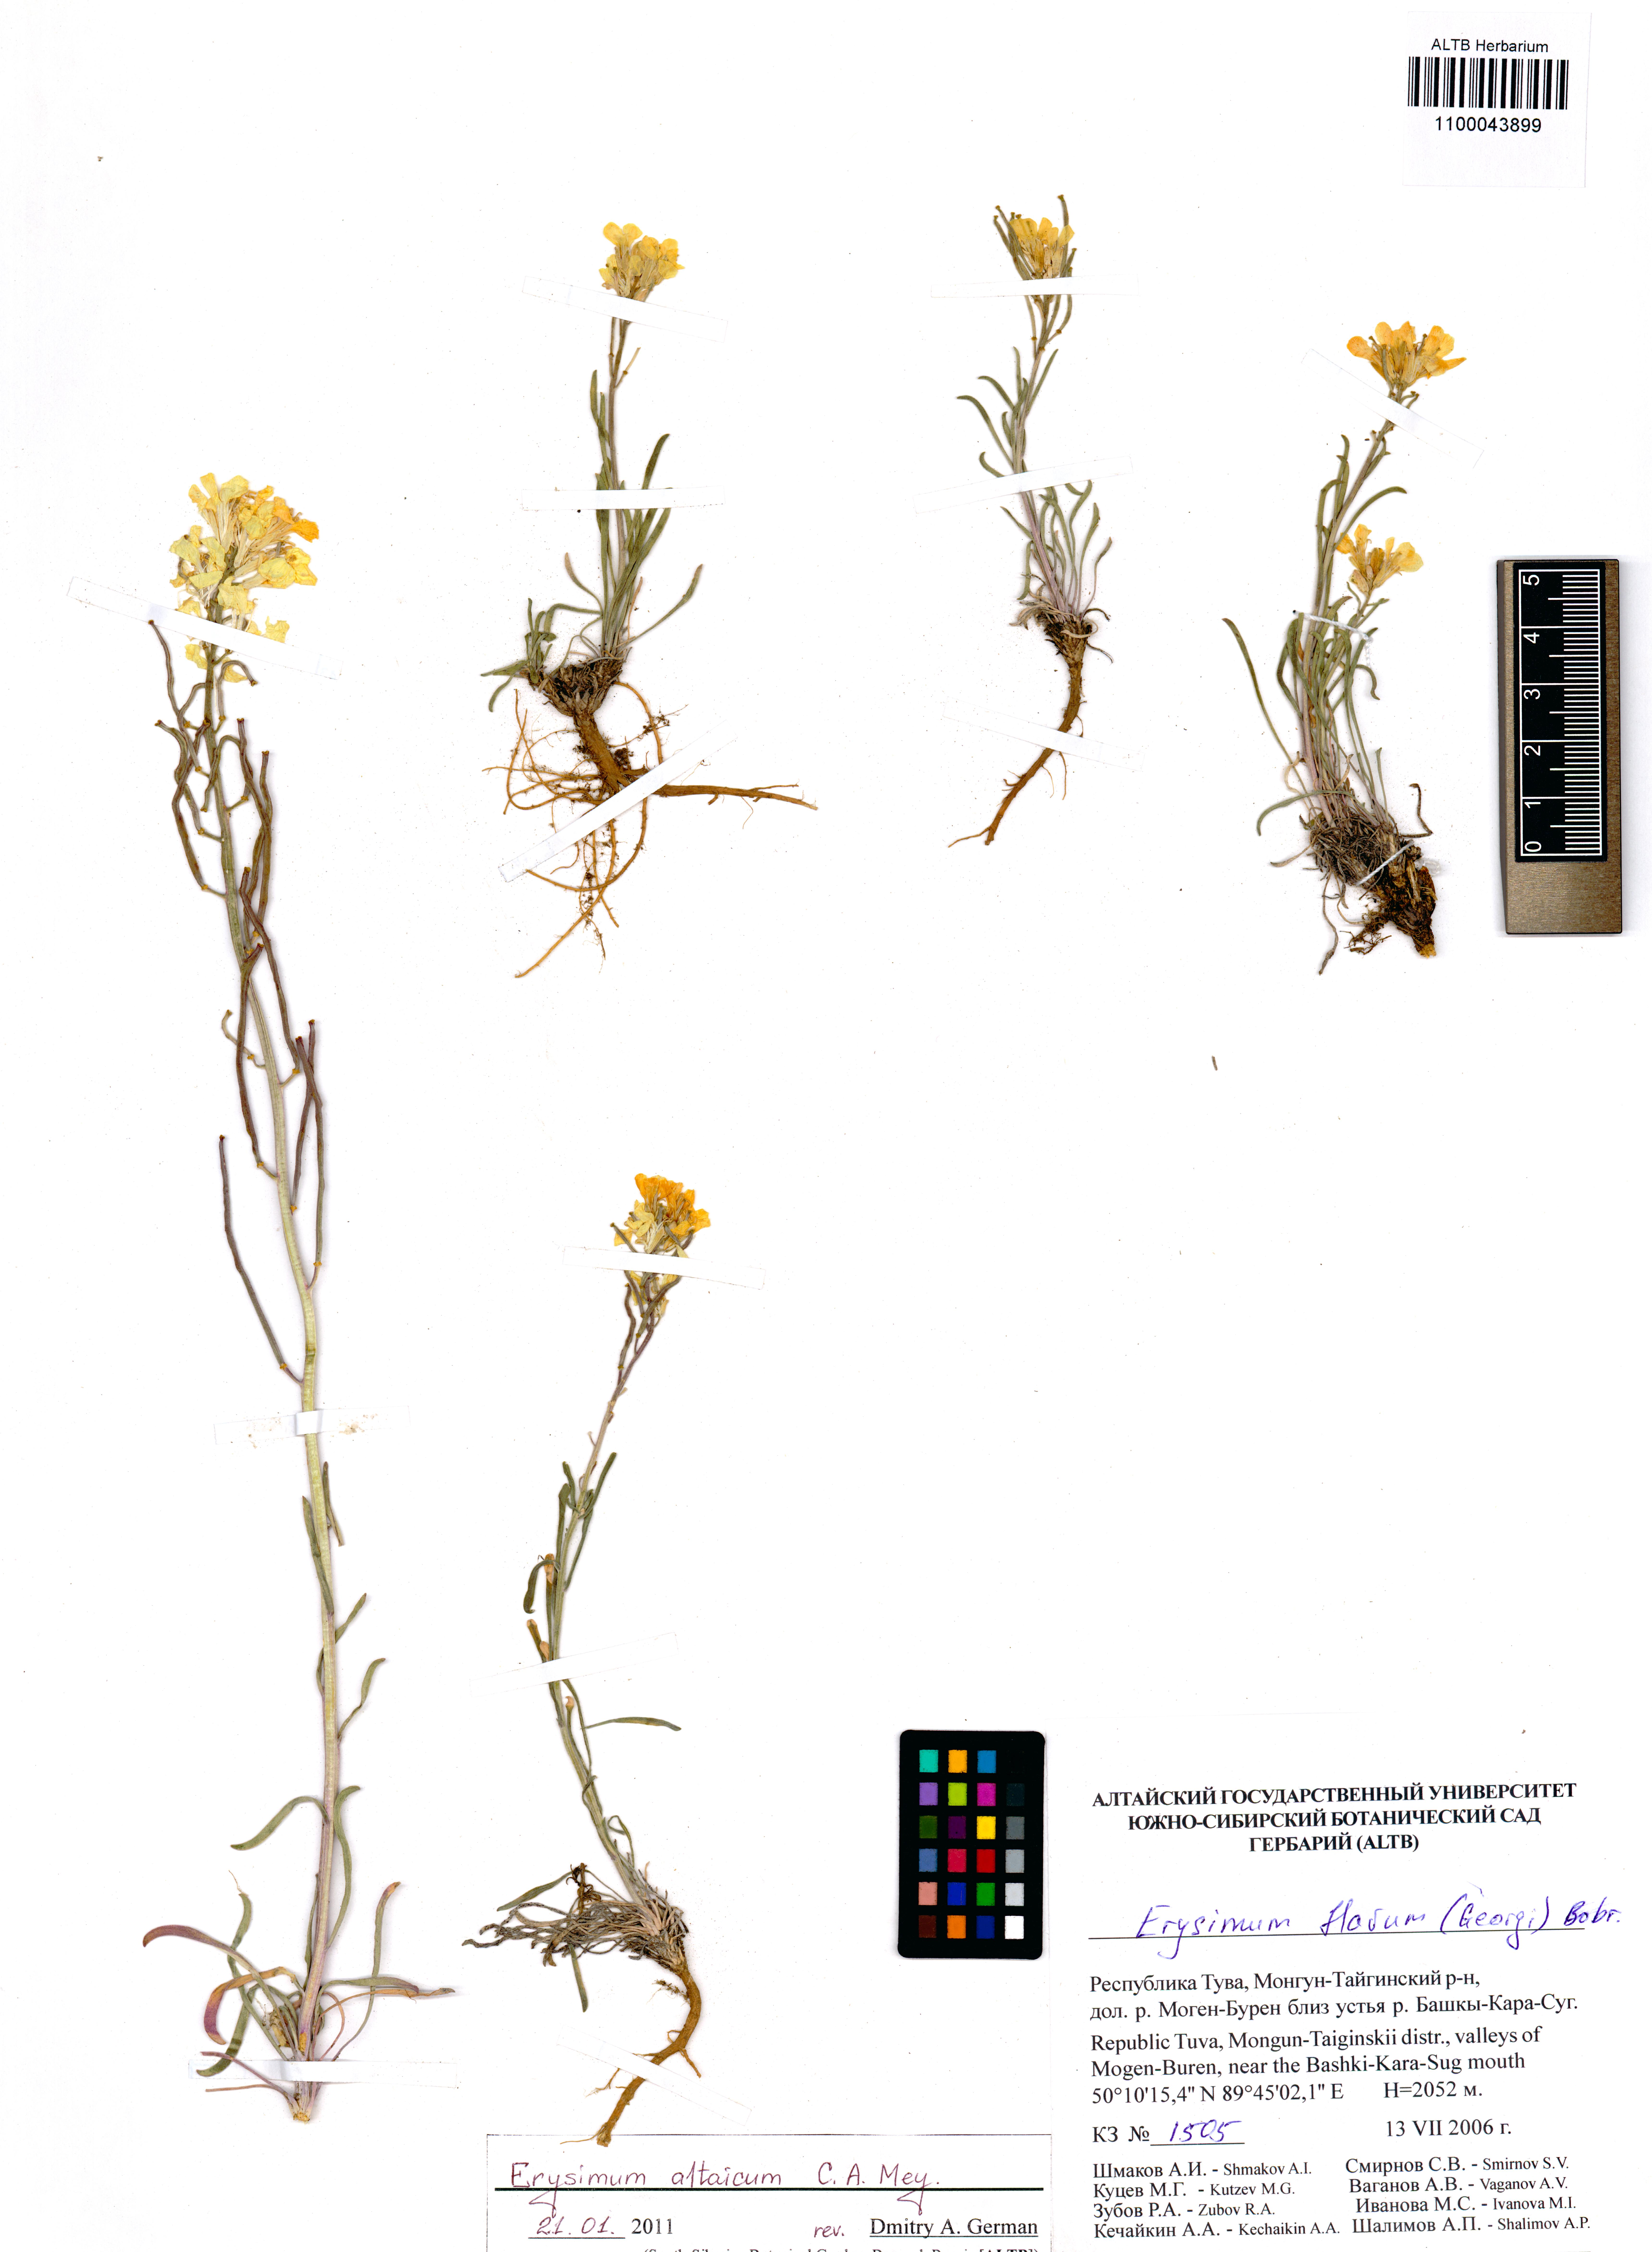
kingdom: Plantae
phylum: Tracheophyta
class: Magnoliopsida
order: Brassicales
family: Brassicaceae
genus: Erysimum
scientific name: Erysimum altaicum
